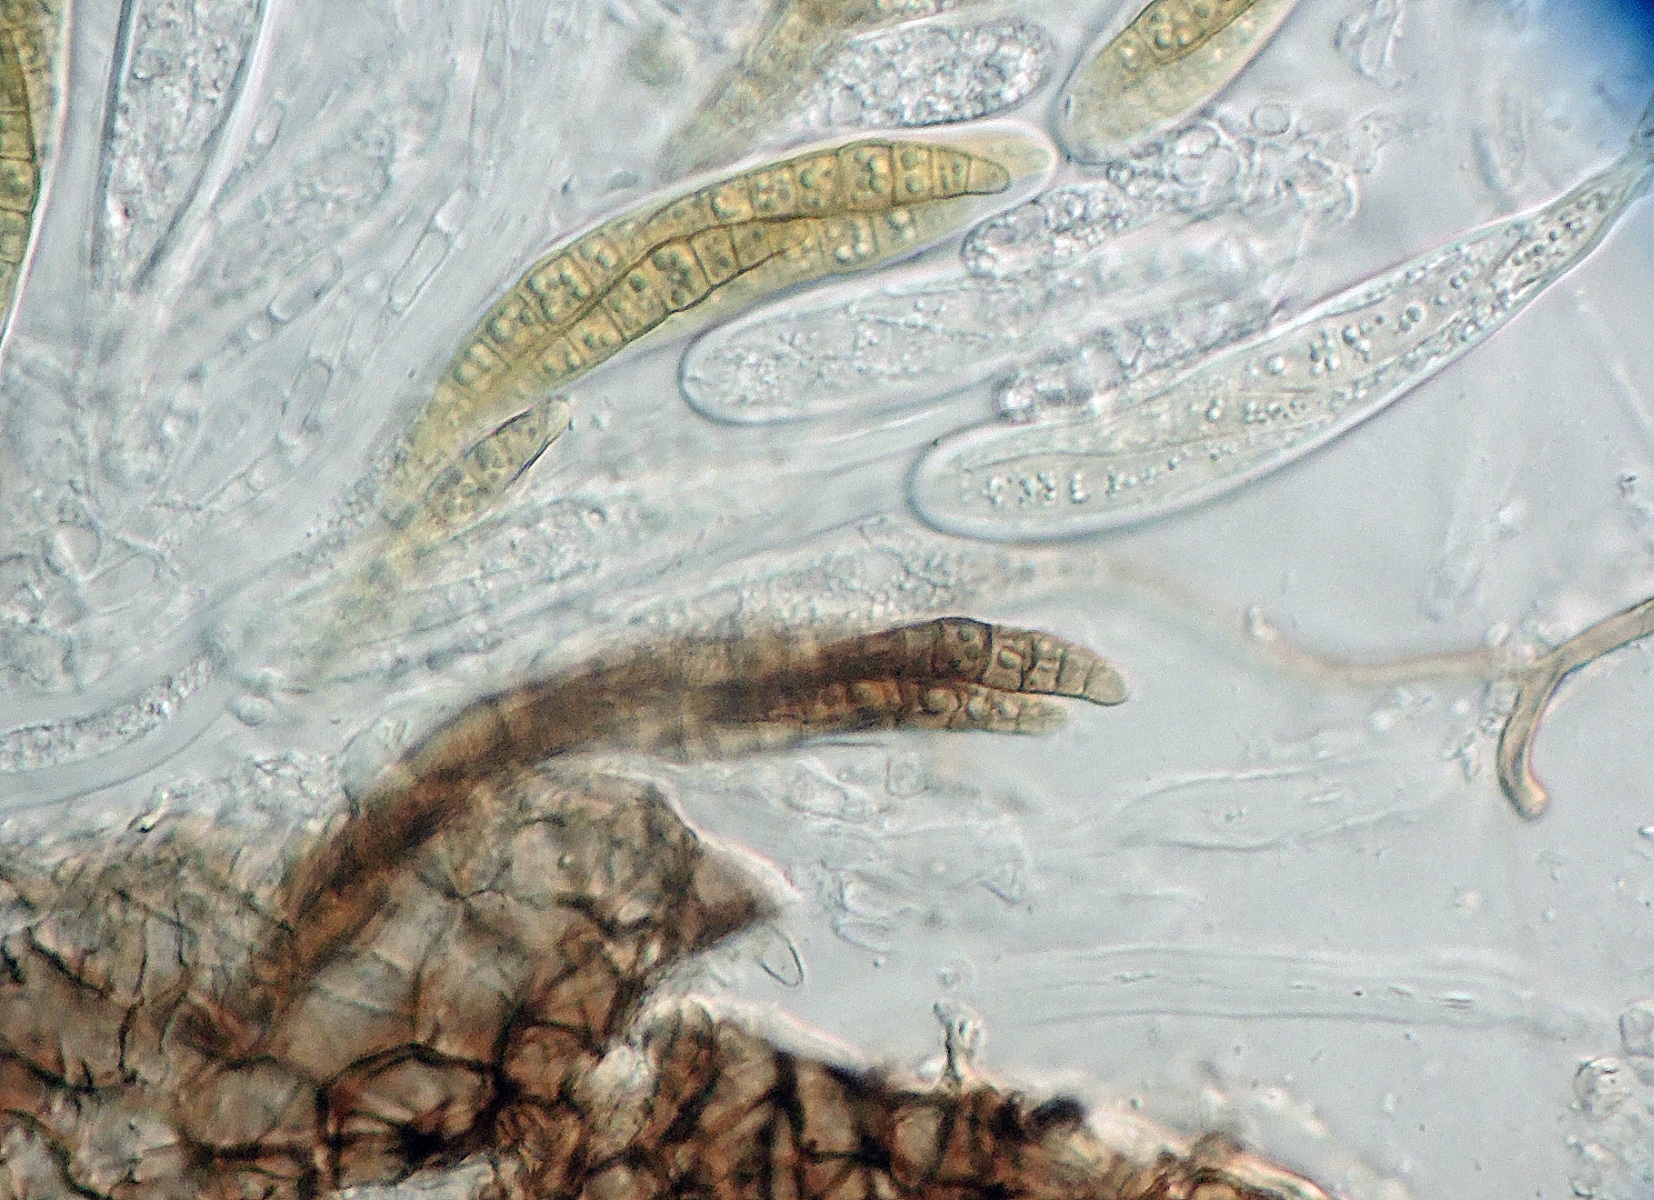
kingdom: Fungi
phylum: Ascomycota
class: Dothideomycetes
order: Pleosporales
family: Leptosphaeriaceae
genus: Leptosphaeria
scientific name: Leptosphaeria culmifraga
